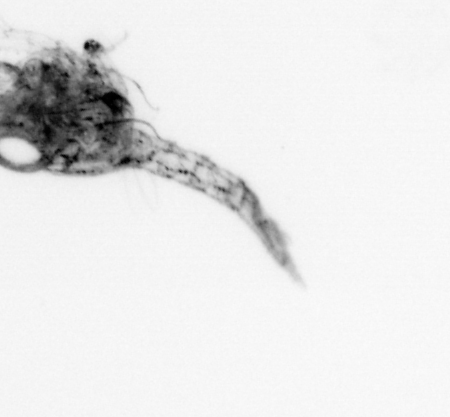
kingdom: Animalia
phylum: Arthropoda
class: Malacostraca
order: Decapoda
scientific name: Decapoda
